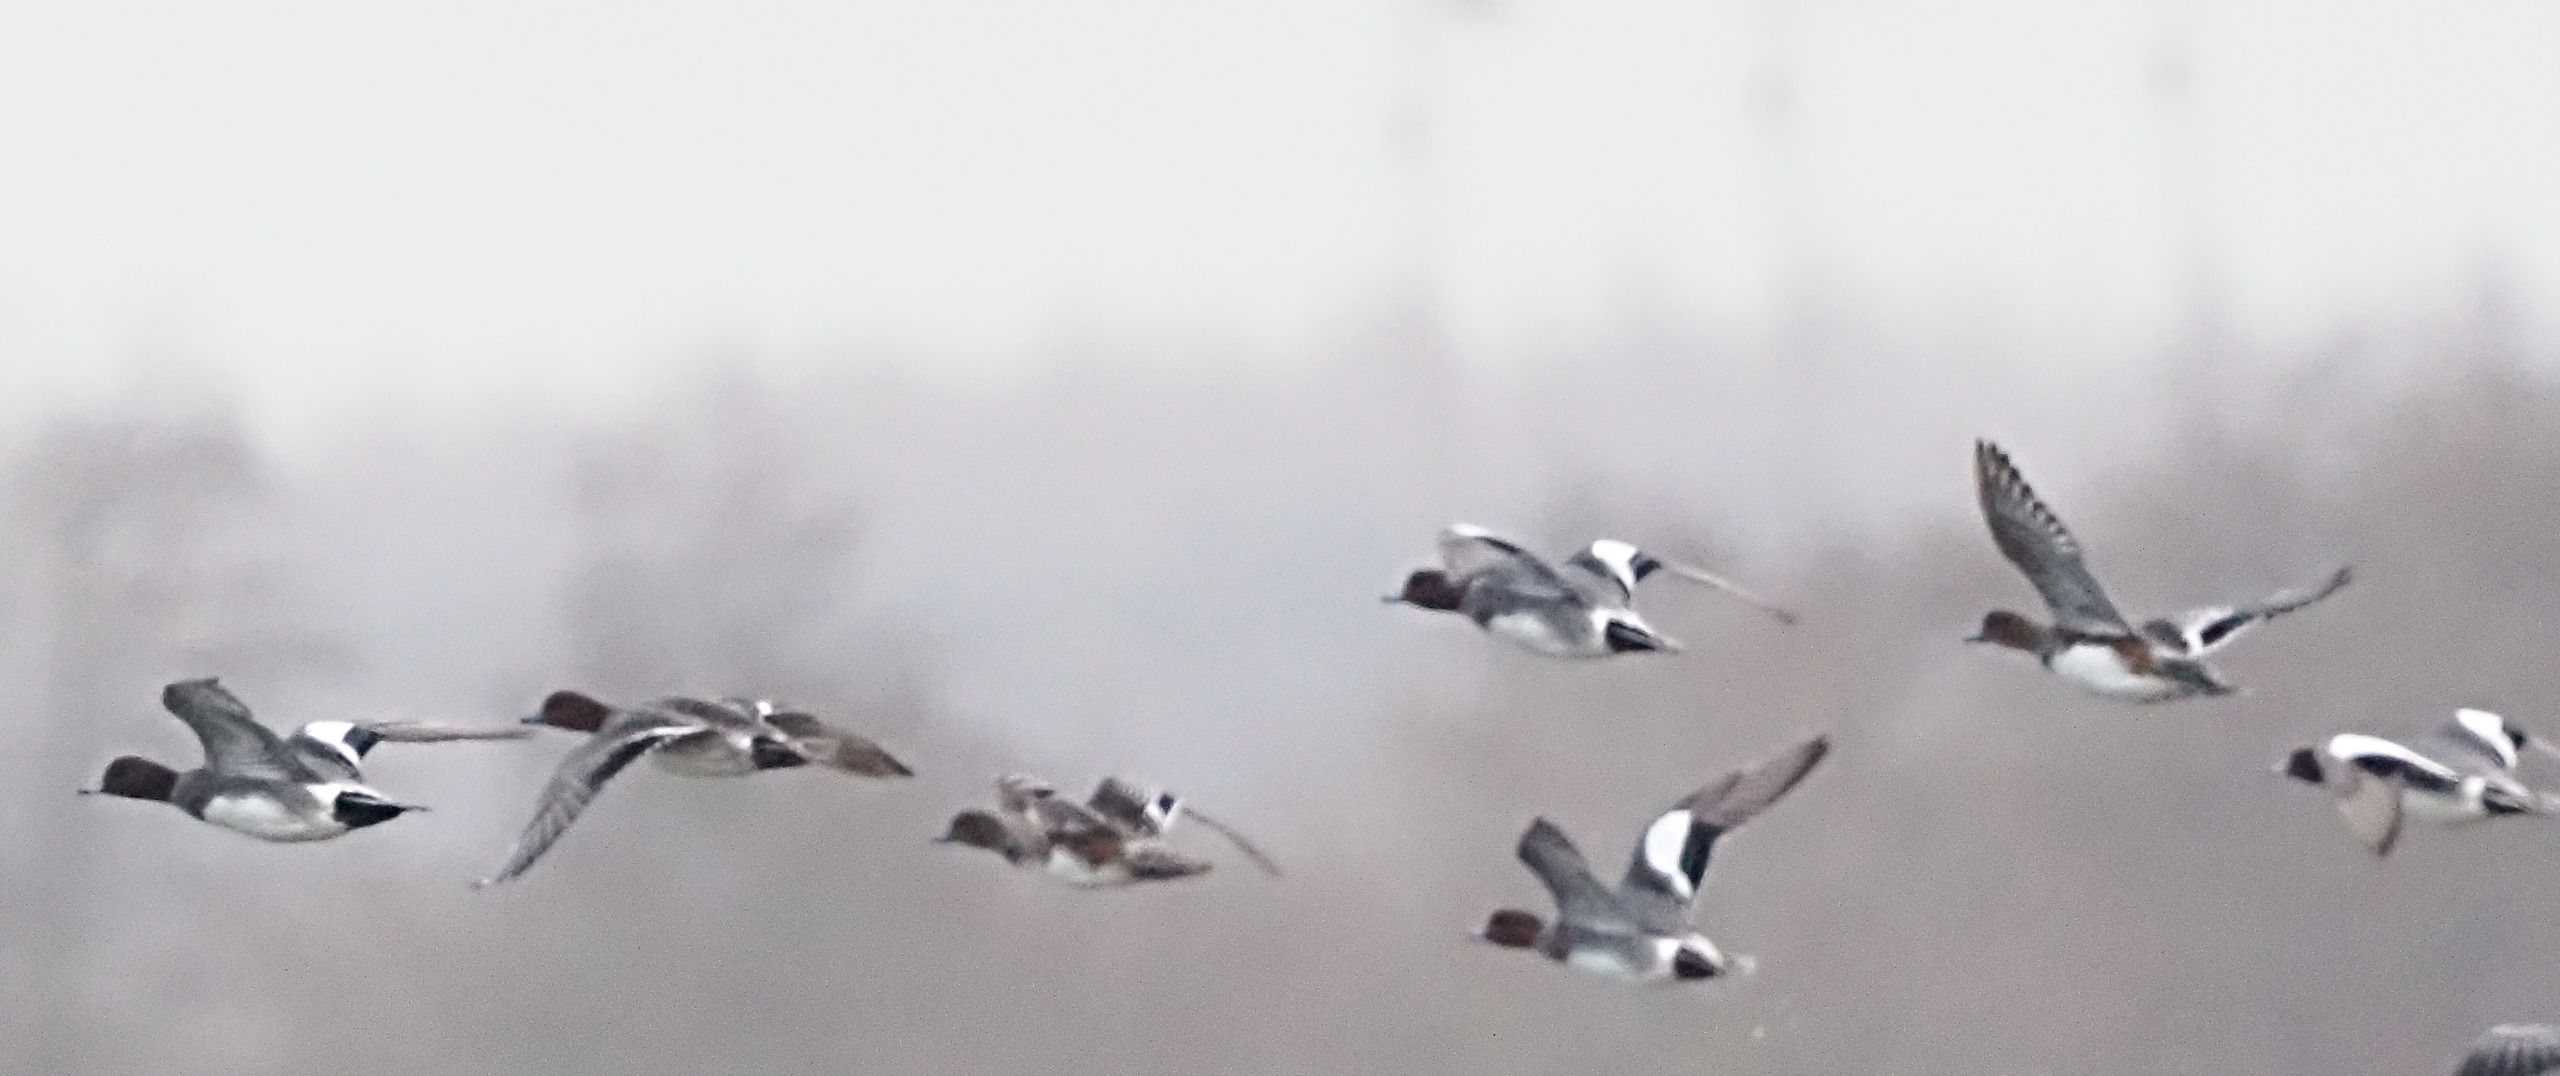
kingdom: Animalia
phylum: Chordata
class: Aves
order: Anseriformes
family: Anatidae
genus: Mareca
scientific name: Mareca penelope
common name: Pibeand
